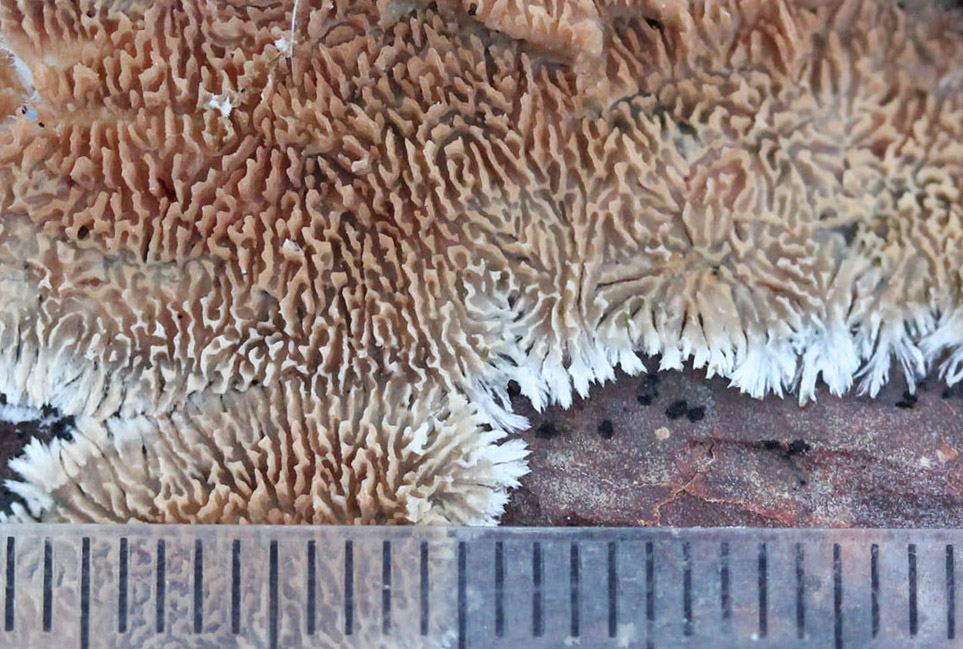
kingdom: Fungi
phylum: Basidiomycota
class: Agaricomycetes
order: Hymenochaetales
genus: Trichaptum
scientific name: Trichaptum fuscoviolaceum
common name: tandet violporesvamp
